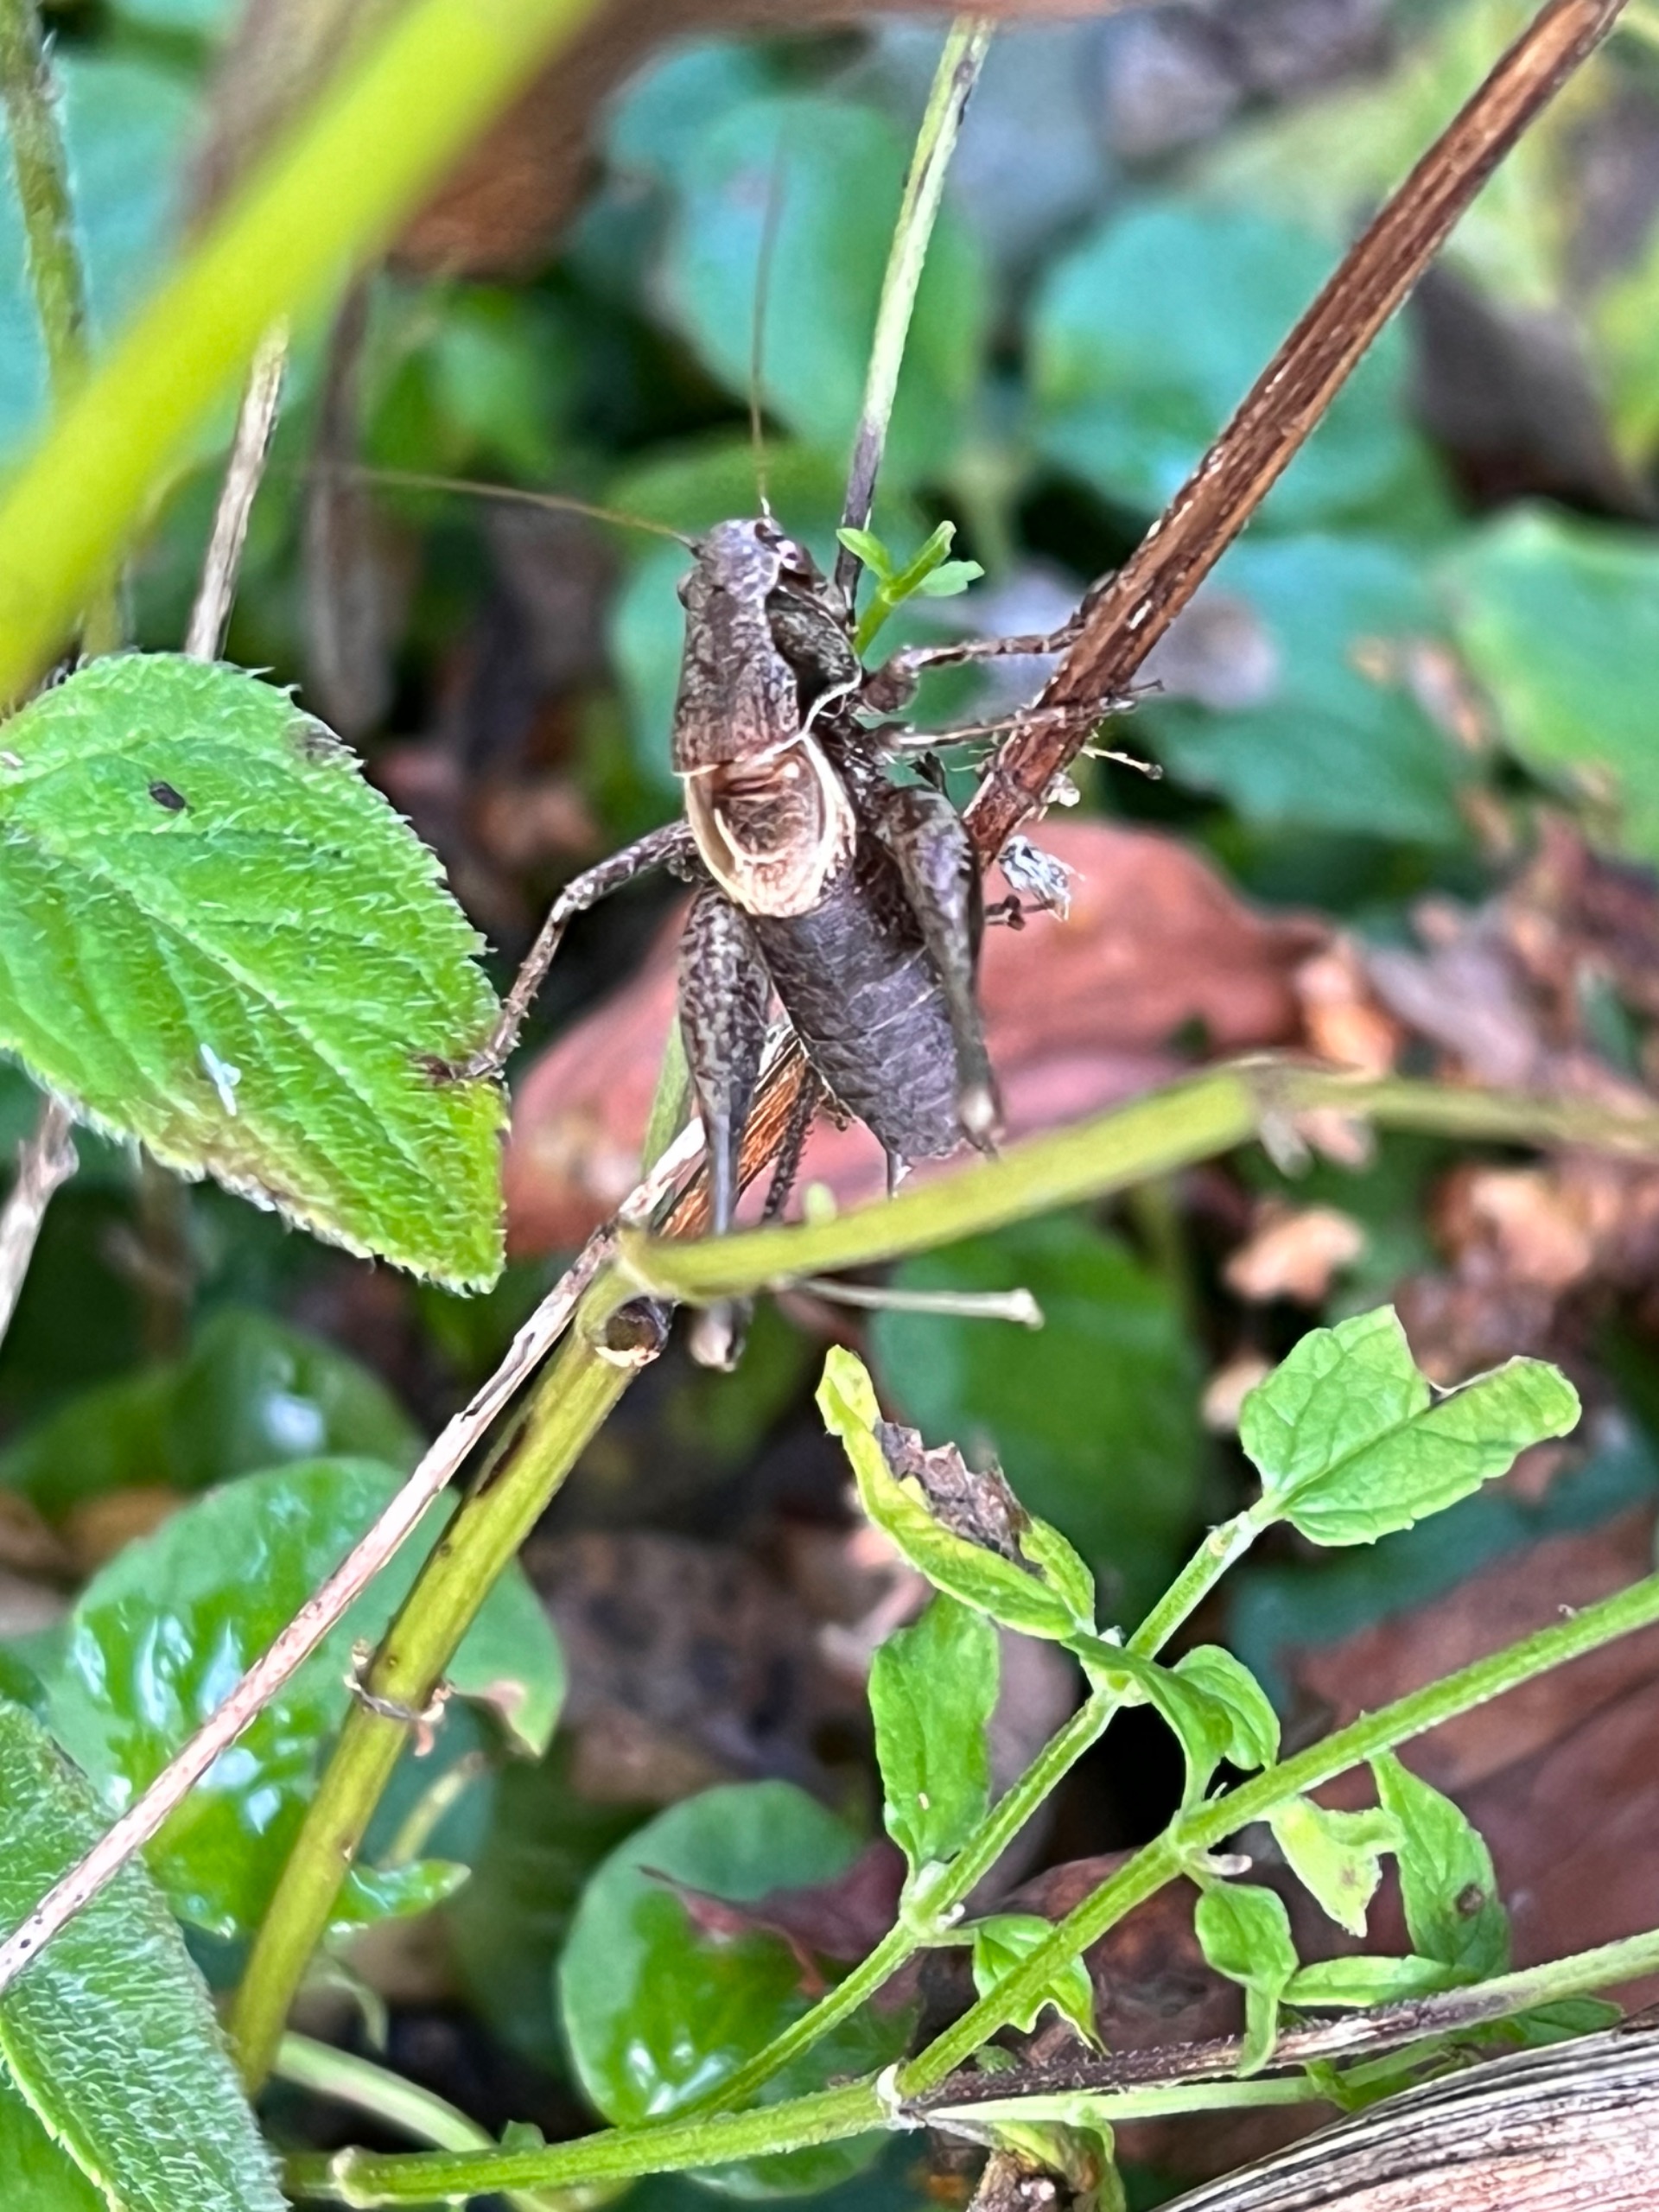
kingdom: Animalia
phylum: Arthropoda
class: Insecta
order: Orthoptera
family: Tettigoniidae
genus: Pholidoptera
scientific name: Pholidoptera griseoaptera
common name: Buskgræshoppe
